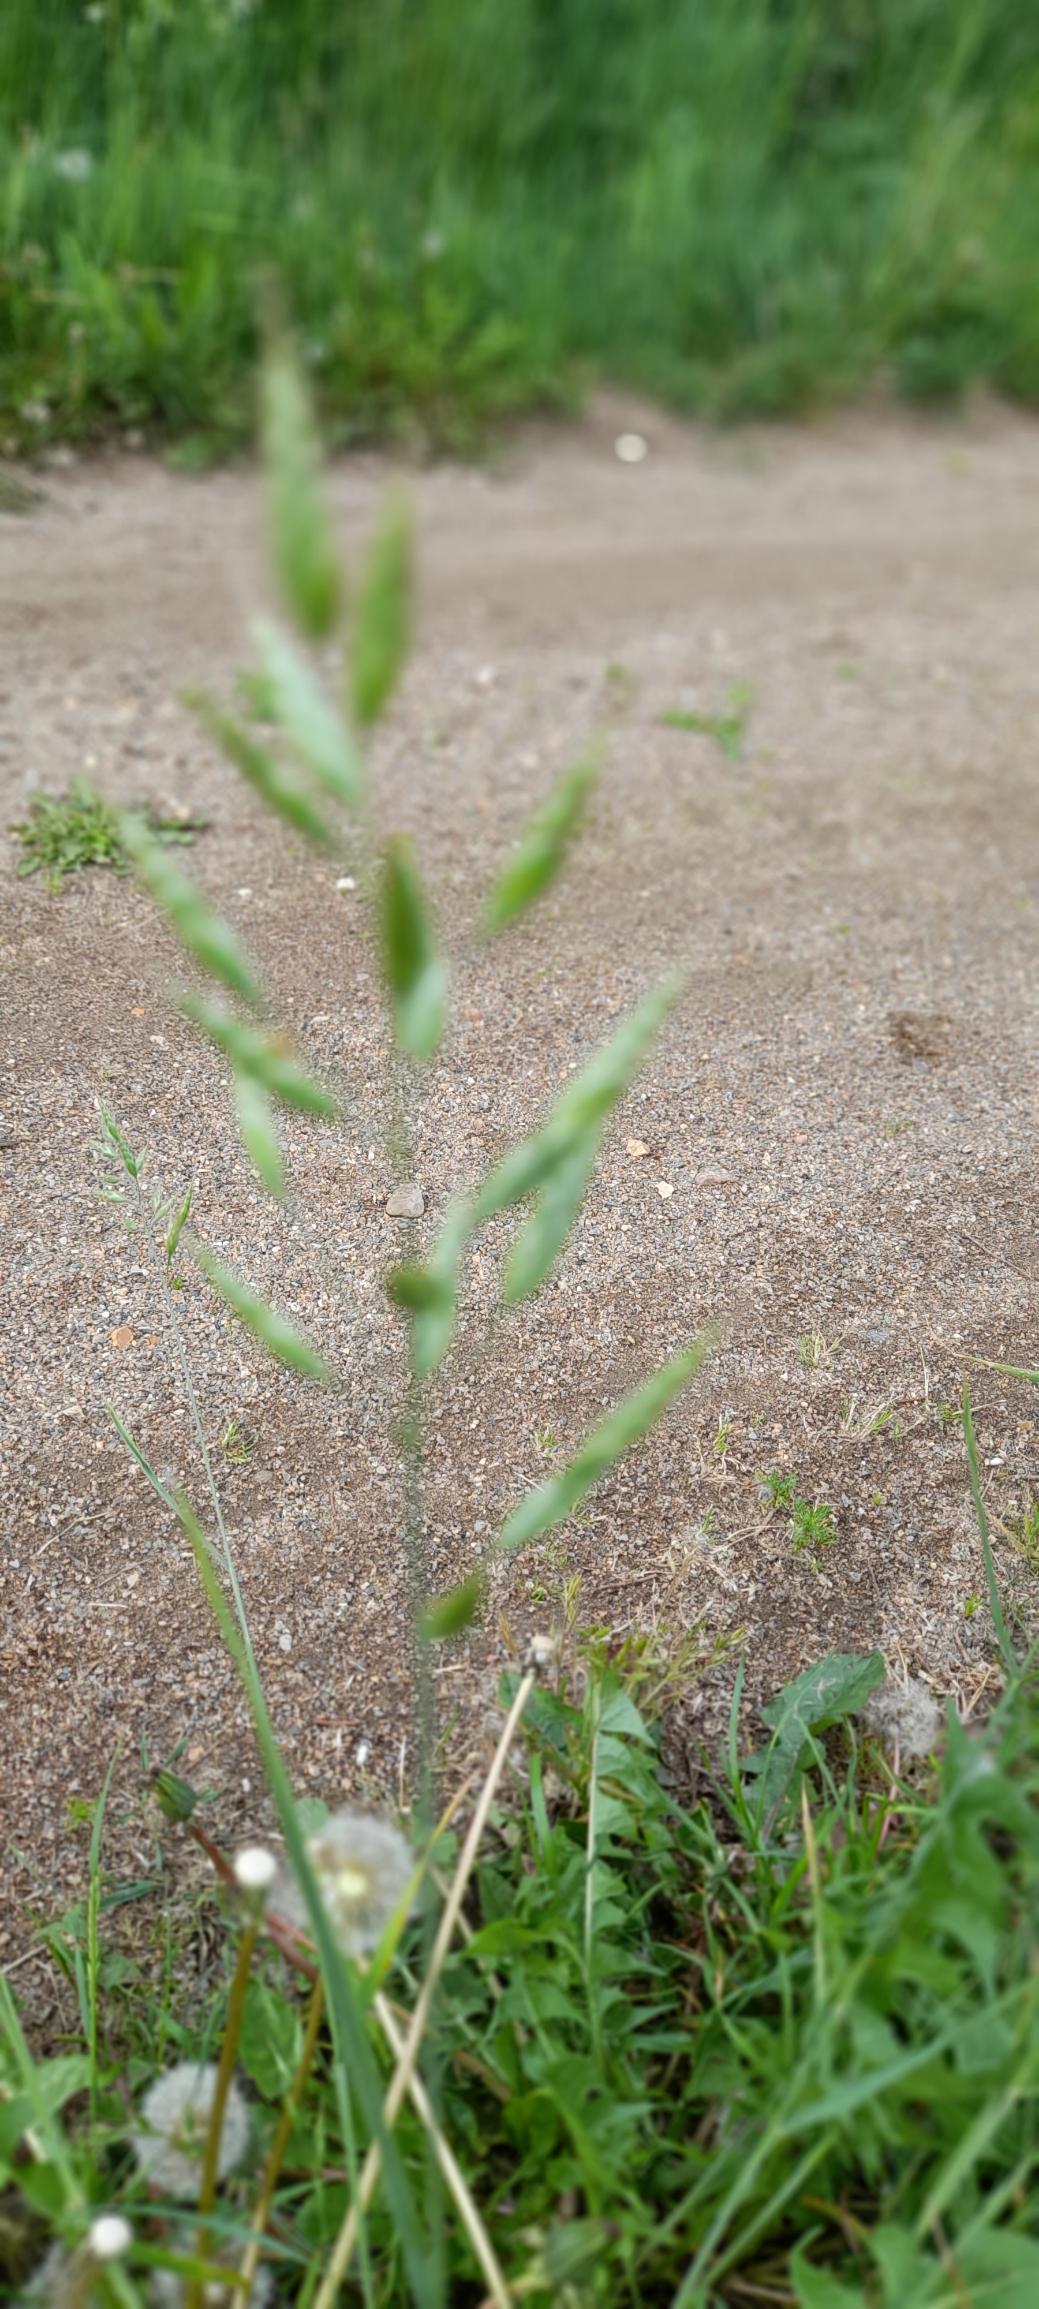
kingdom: Plantae
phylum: Tracheophyta
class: Liliopsida
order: Poales
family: Poaceae
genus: Bromus
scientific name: Bromus hordeaceus
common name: Blød hejre
